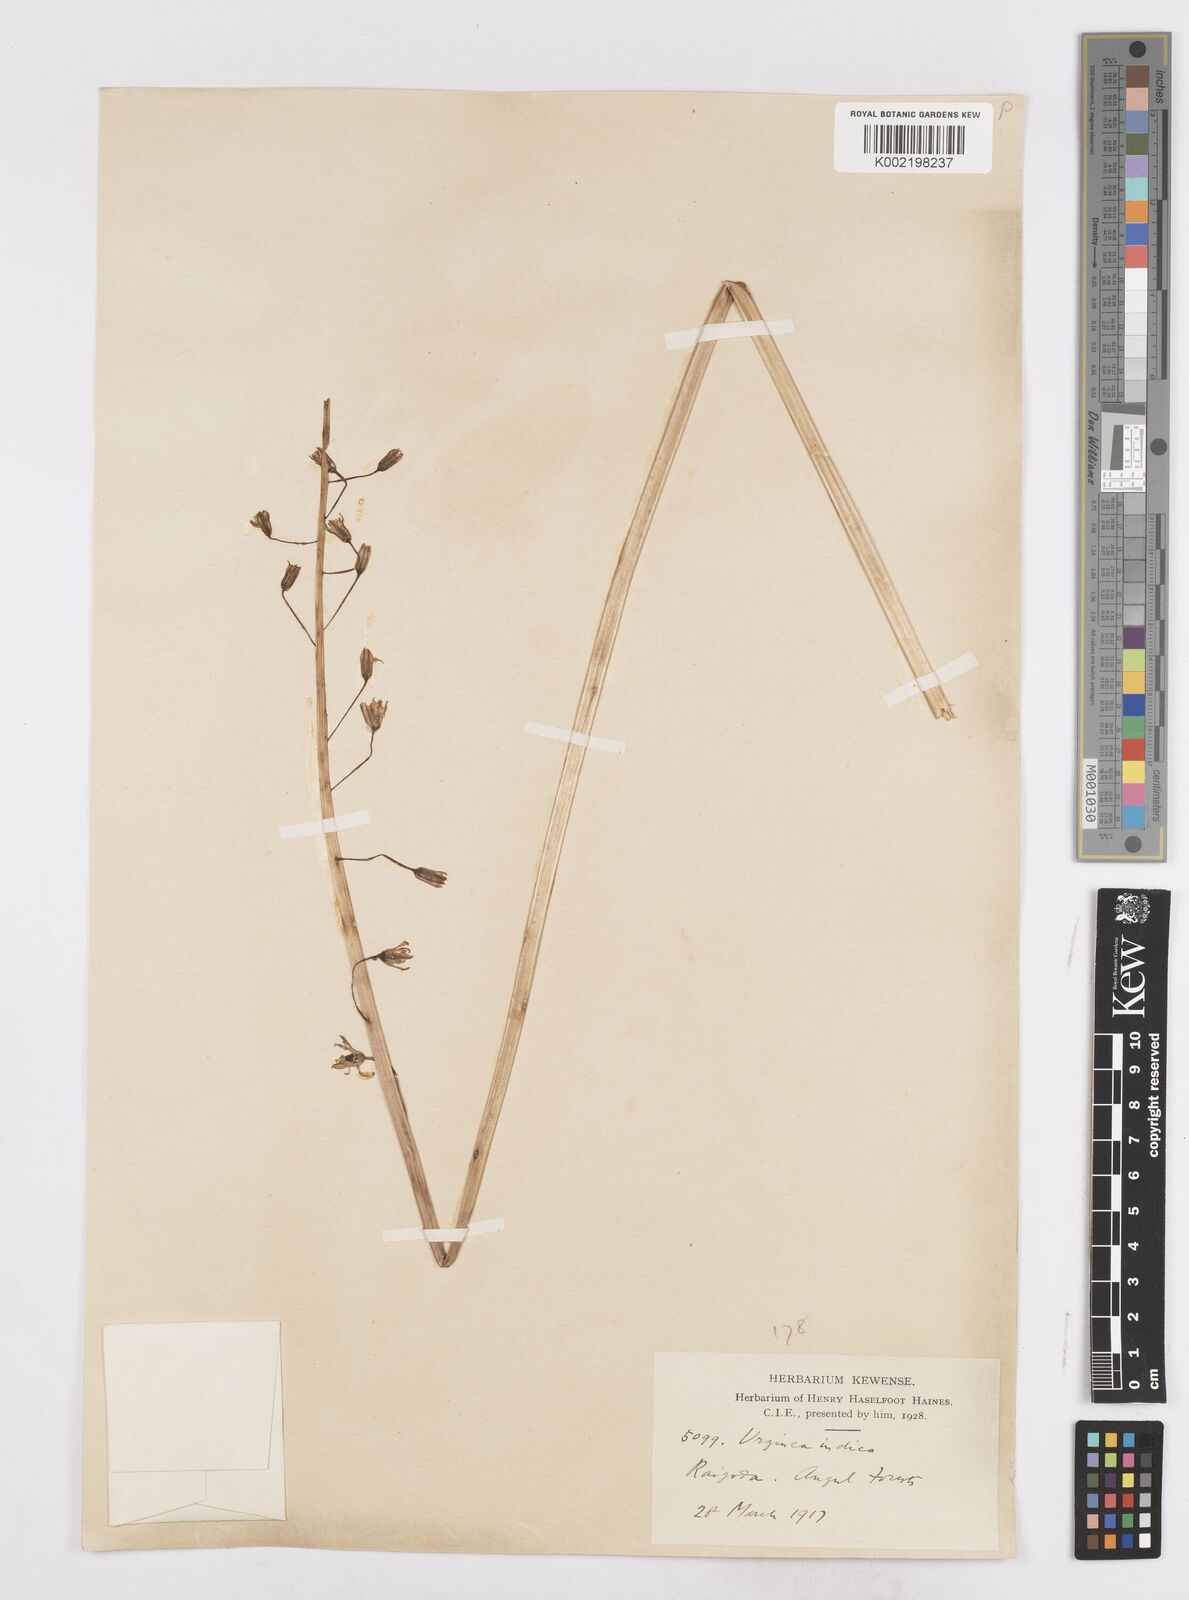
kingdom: Plantae
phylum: Tracheophyta
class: Liliopsida
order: Asparagales
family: Asparagaceae
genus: Drimia
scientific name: Drimia indica
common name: Indian-squill
